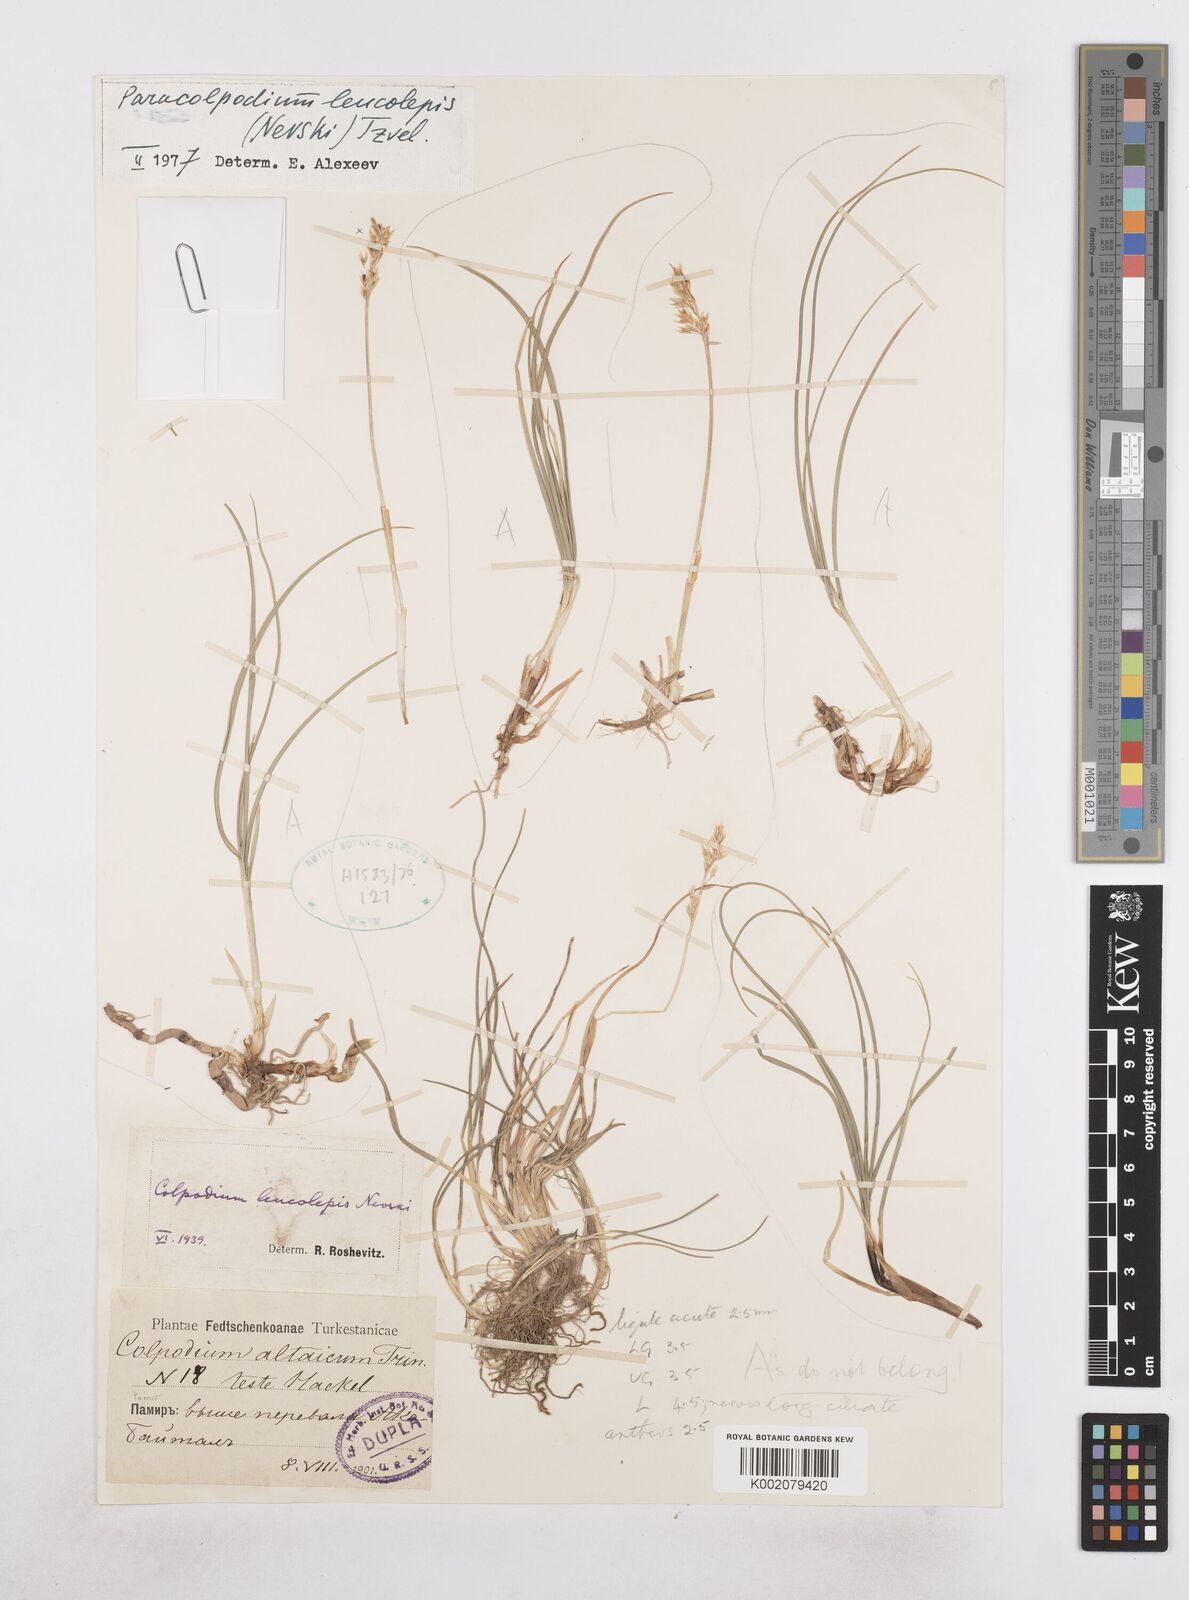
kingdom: Plantae
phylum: Tracheophyta
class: Liliopsida
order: Poales
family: Poaceae
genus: Paracolpodium
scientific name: Paracolpodium altaicum
